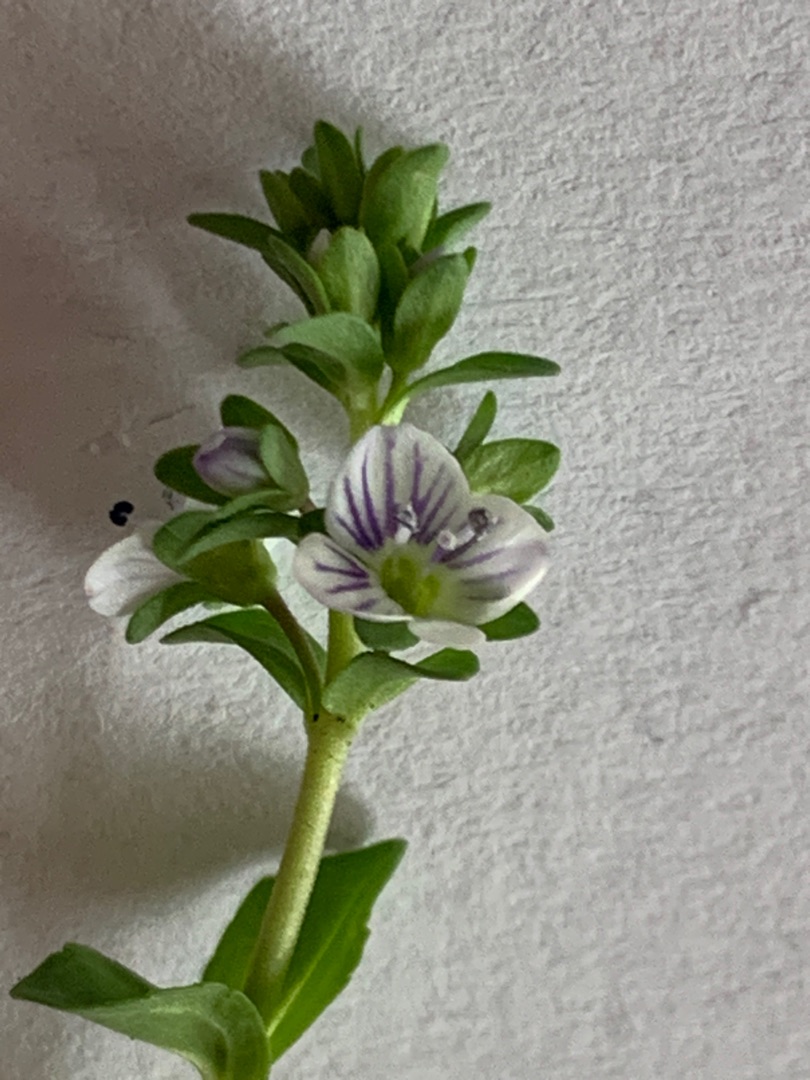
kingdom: Plantae
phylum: Tracheophyta
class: Magnoliopsida
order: Lamiales
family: Plantaginaceae
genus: Veronica
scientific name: Veronica serpyllifolia
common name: Glat ærenpris
